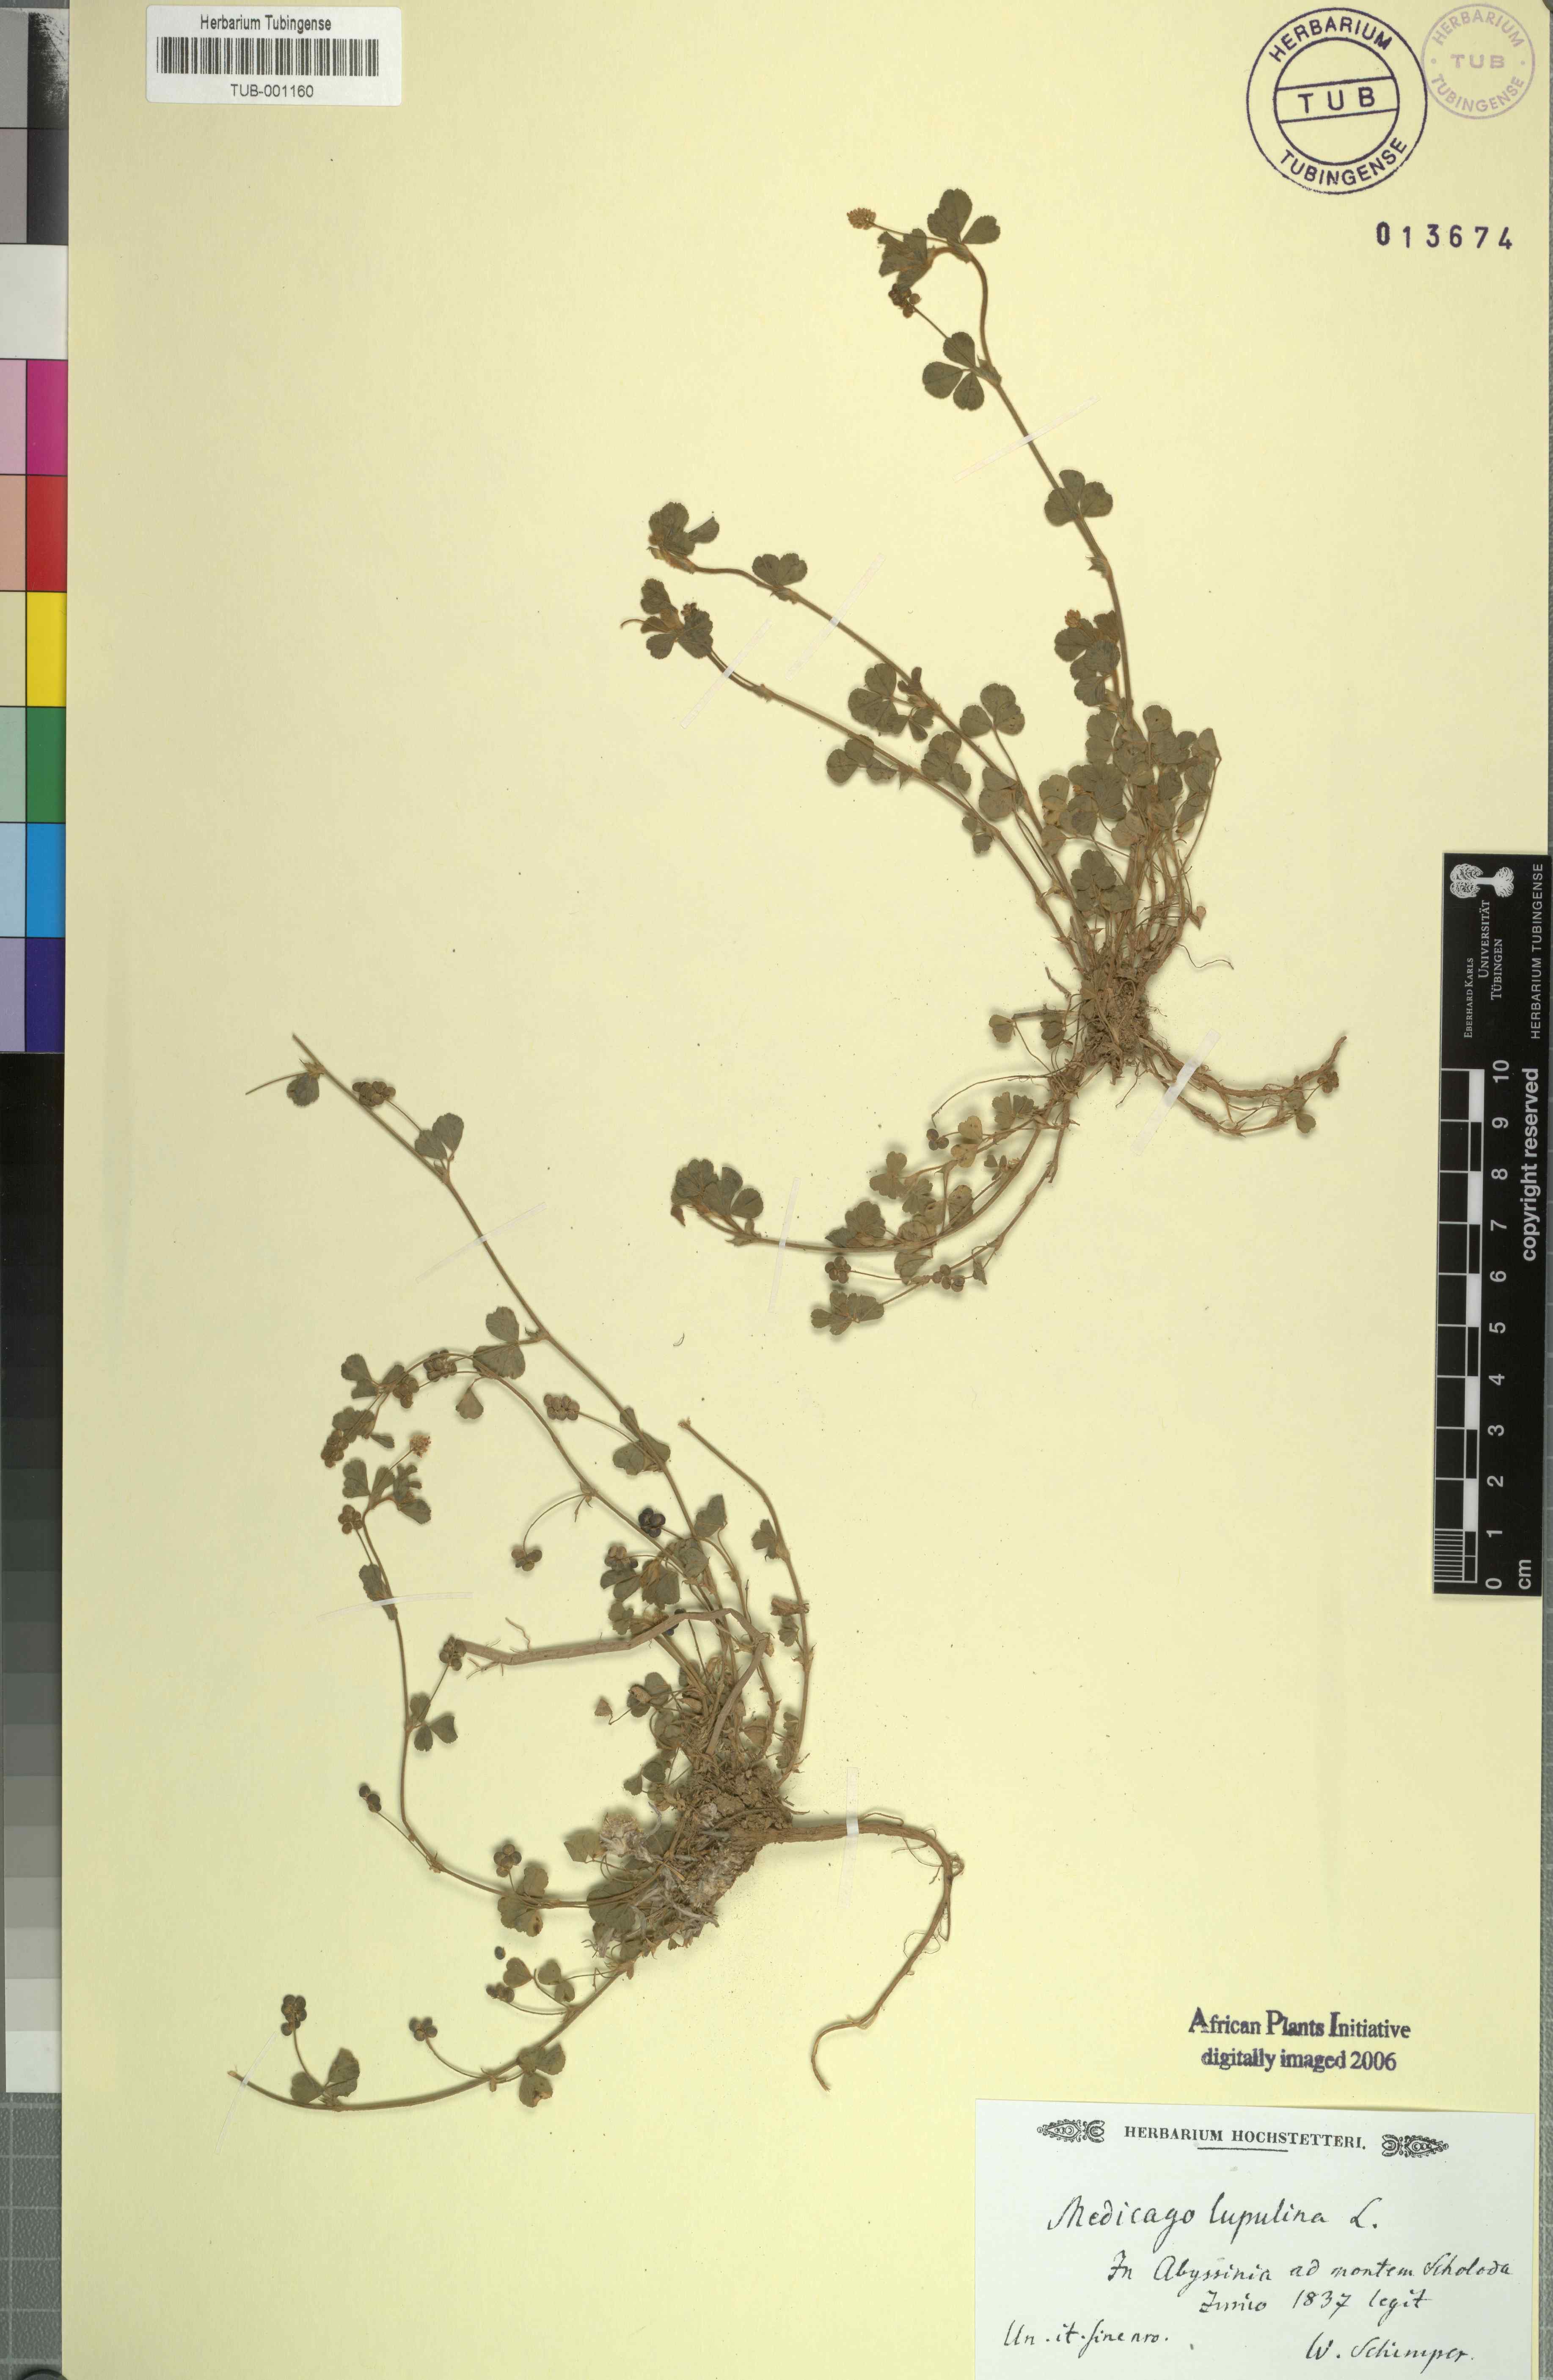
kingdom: Plantae
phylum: Tracheophyta
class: Magnoliopsida
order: Fabales
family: Fabaceae
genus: Medicago
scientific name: Medicago lupulina
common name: Black medick
